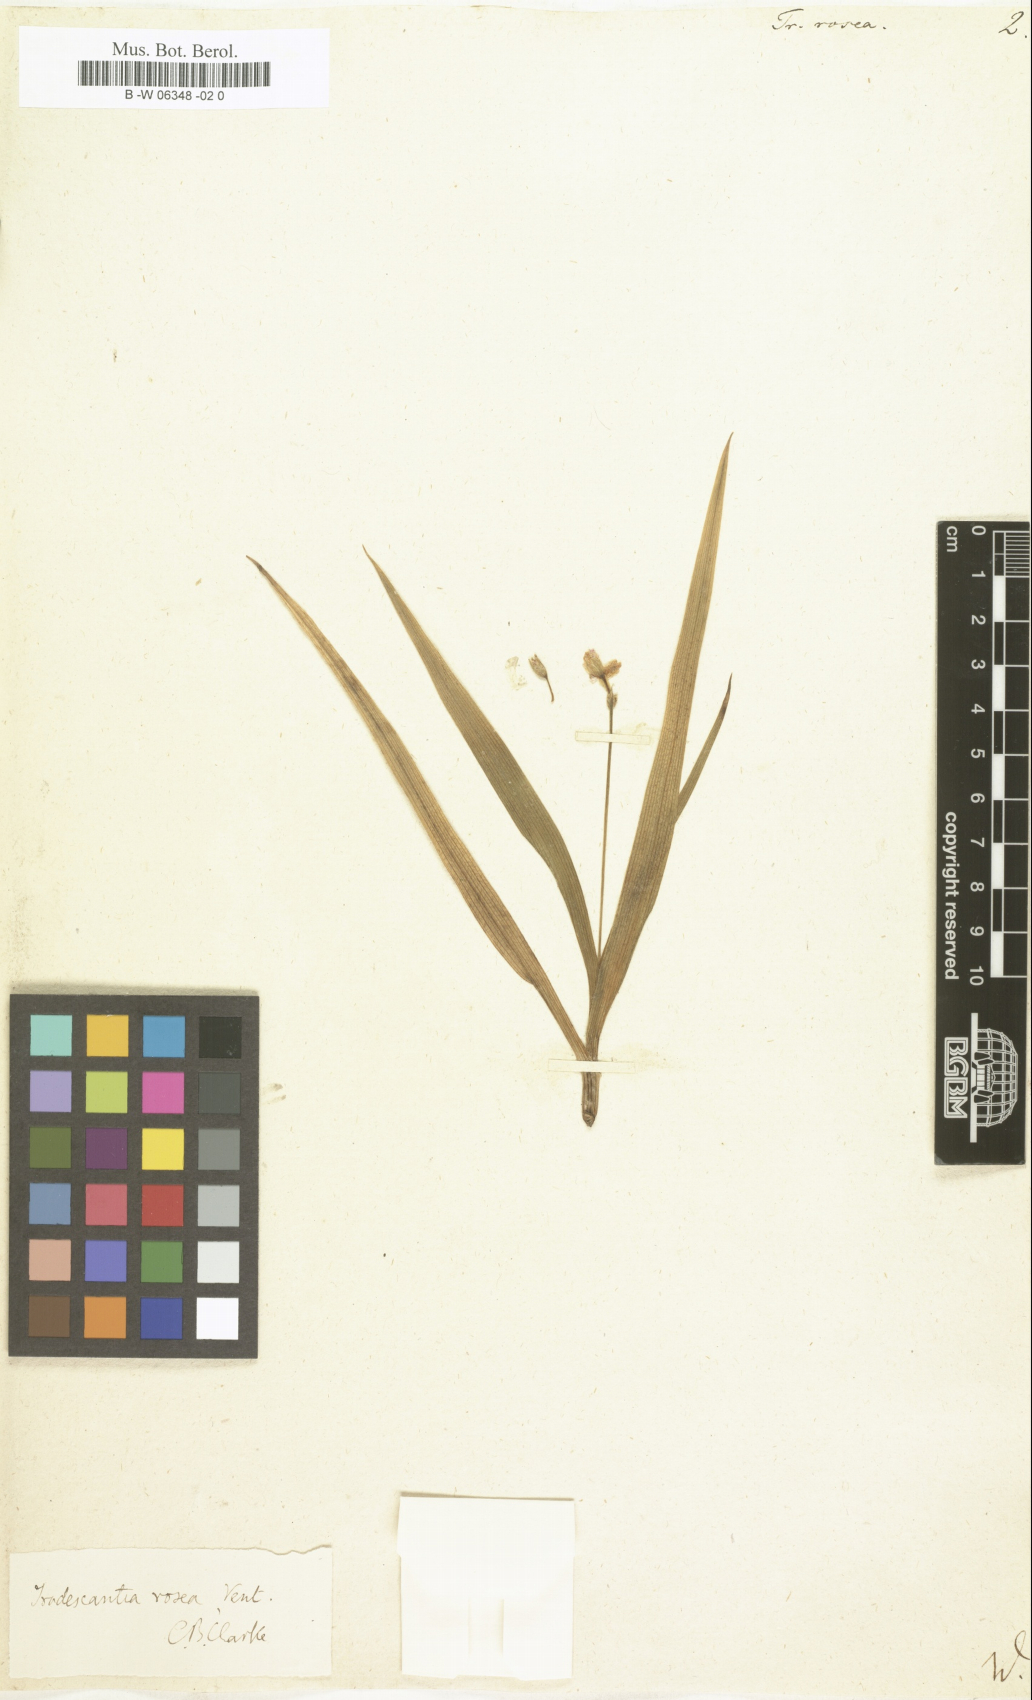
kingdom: Plantae
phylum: Tracheophyta
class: Liliopsida
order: Commelinales
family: Commelinaceae
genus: Callisia
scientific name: Callisia rosea
